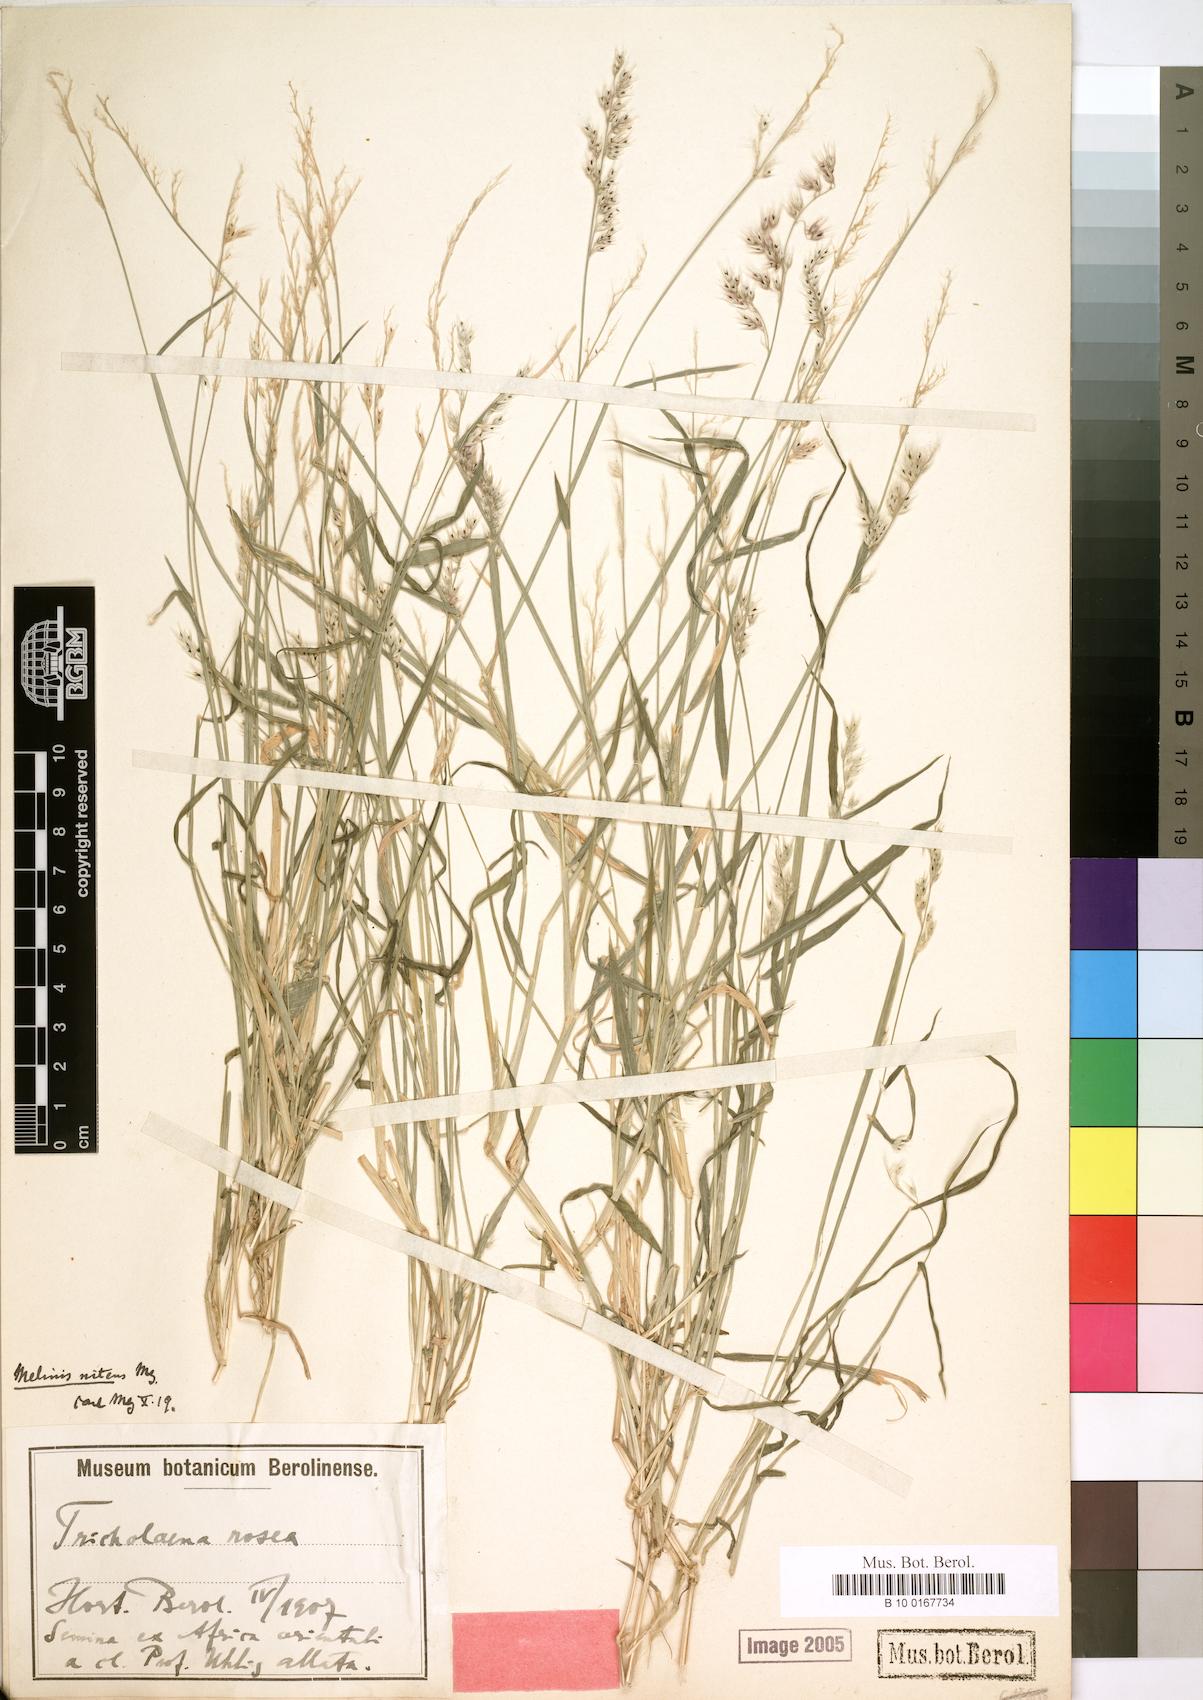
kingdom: Plantae
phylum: Tracheophyta
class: Liliopsida
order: Poales
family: Poaceae
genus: Melinis
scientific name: Melinis repens
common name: Rose natal grass
